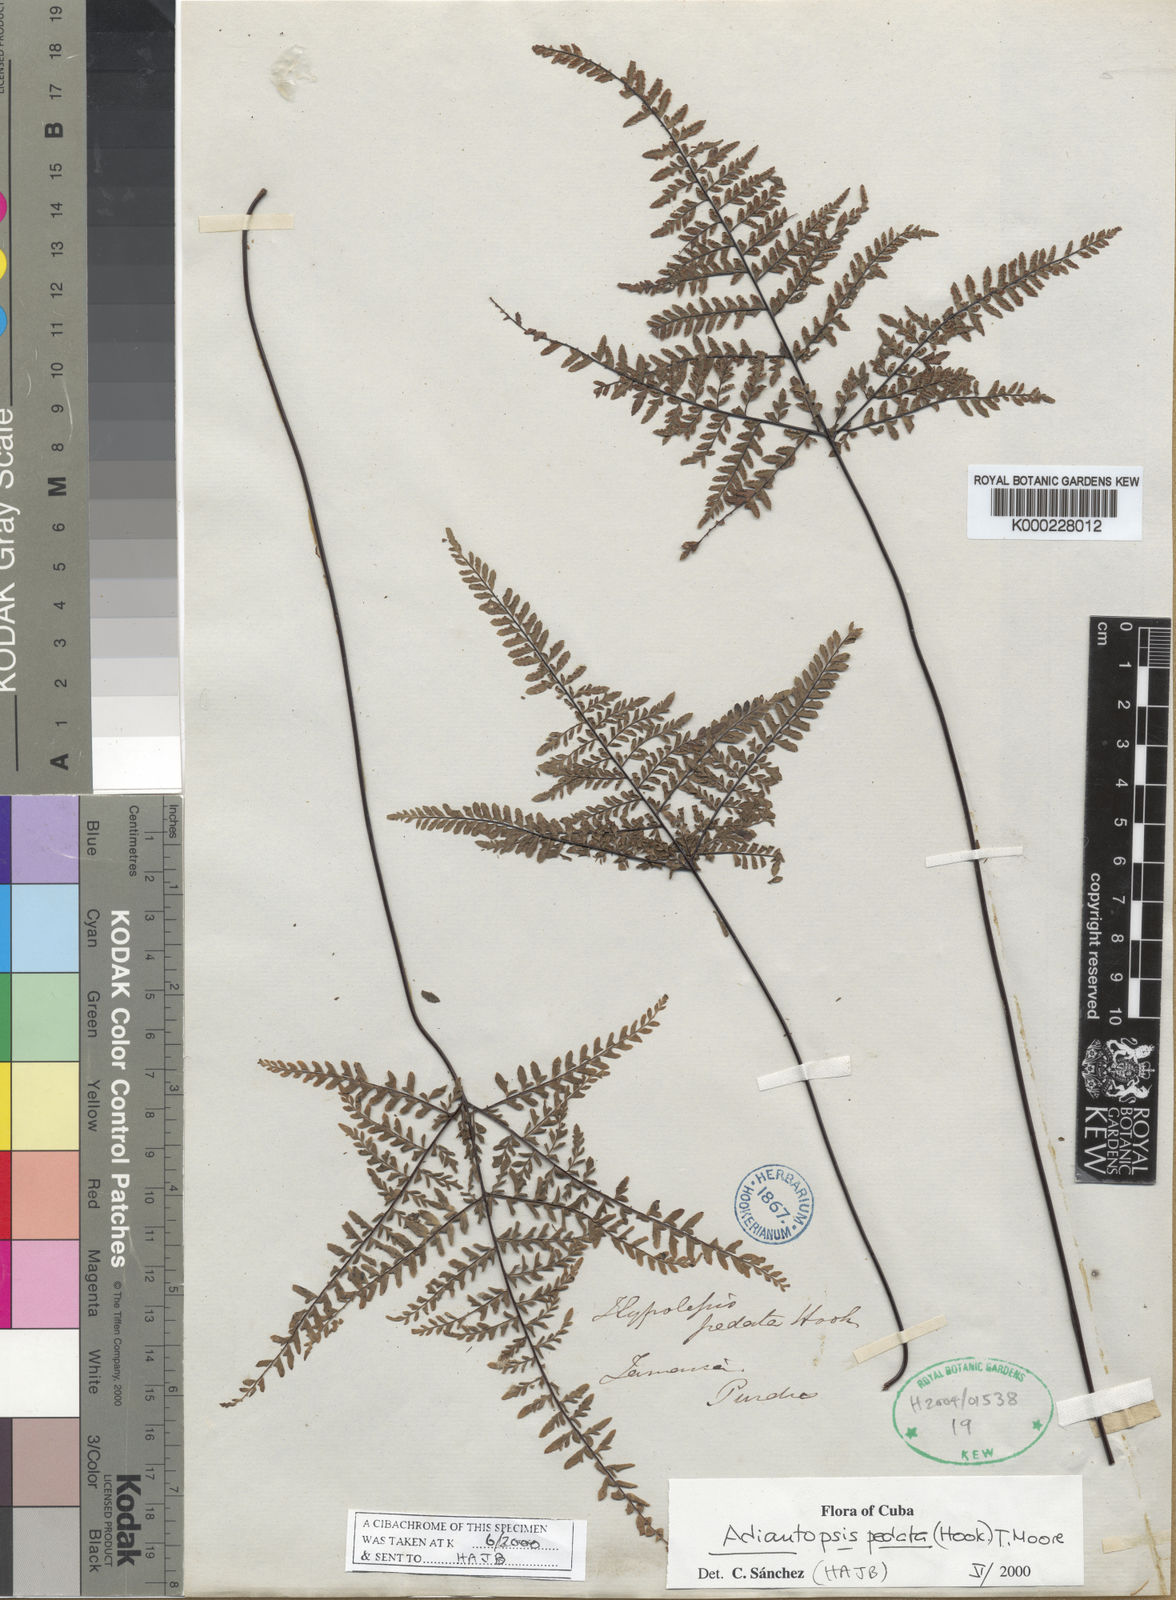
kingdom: Plantae
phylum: Tracheophyta
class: Polypodiopsida
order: Polypodiales
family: Pteridaceae
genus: Adiantopsis
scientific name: Adiantopsis pedata
